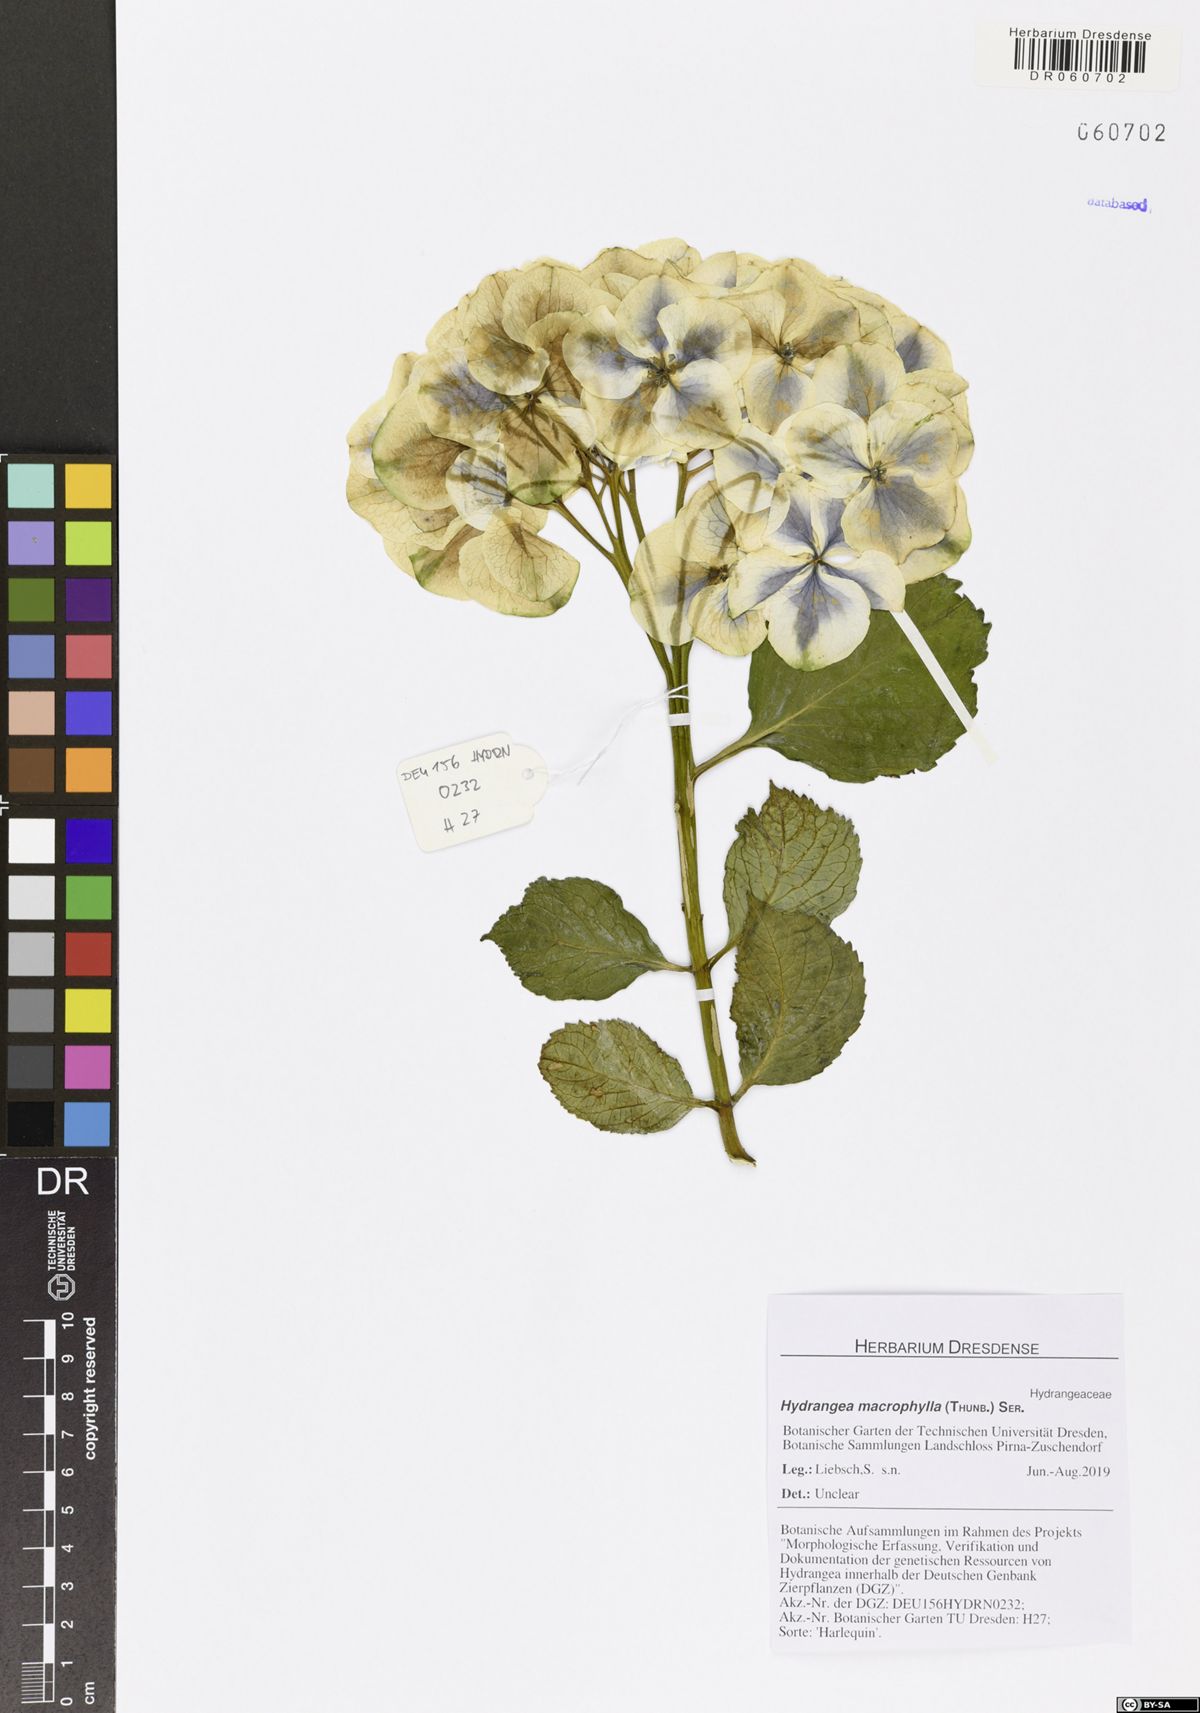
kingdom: Plantae
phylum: Tracheophyta
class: Magnoliopsida
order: Cornales
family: Hydrangeaceae
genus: Hydrangea
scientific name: Hydrangea macrophylla
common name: Hydrangea
